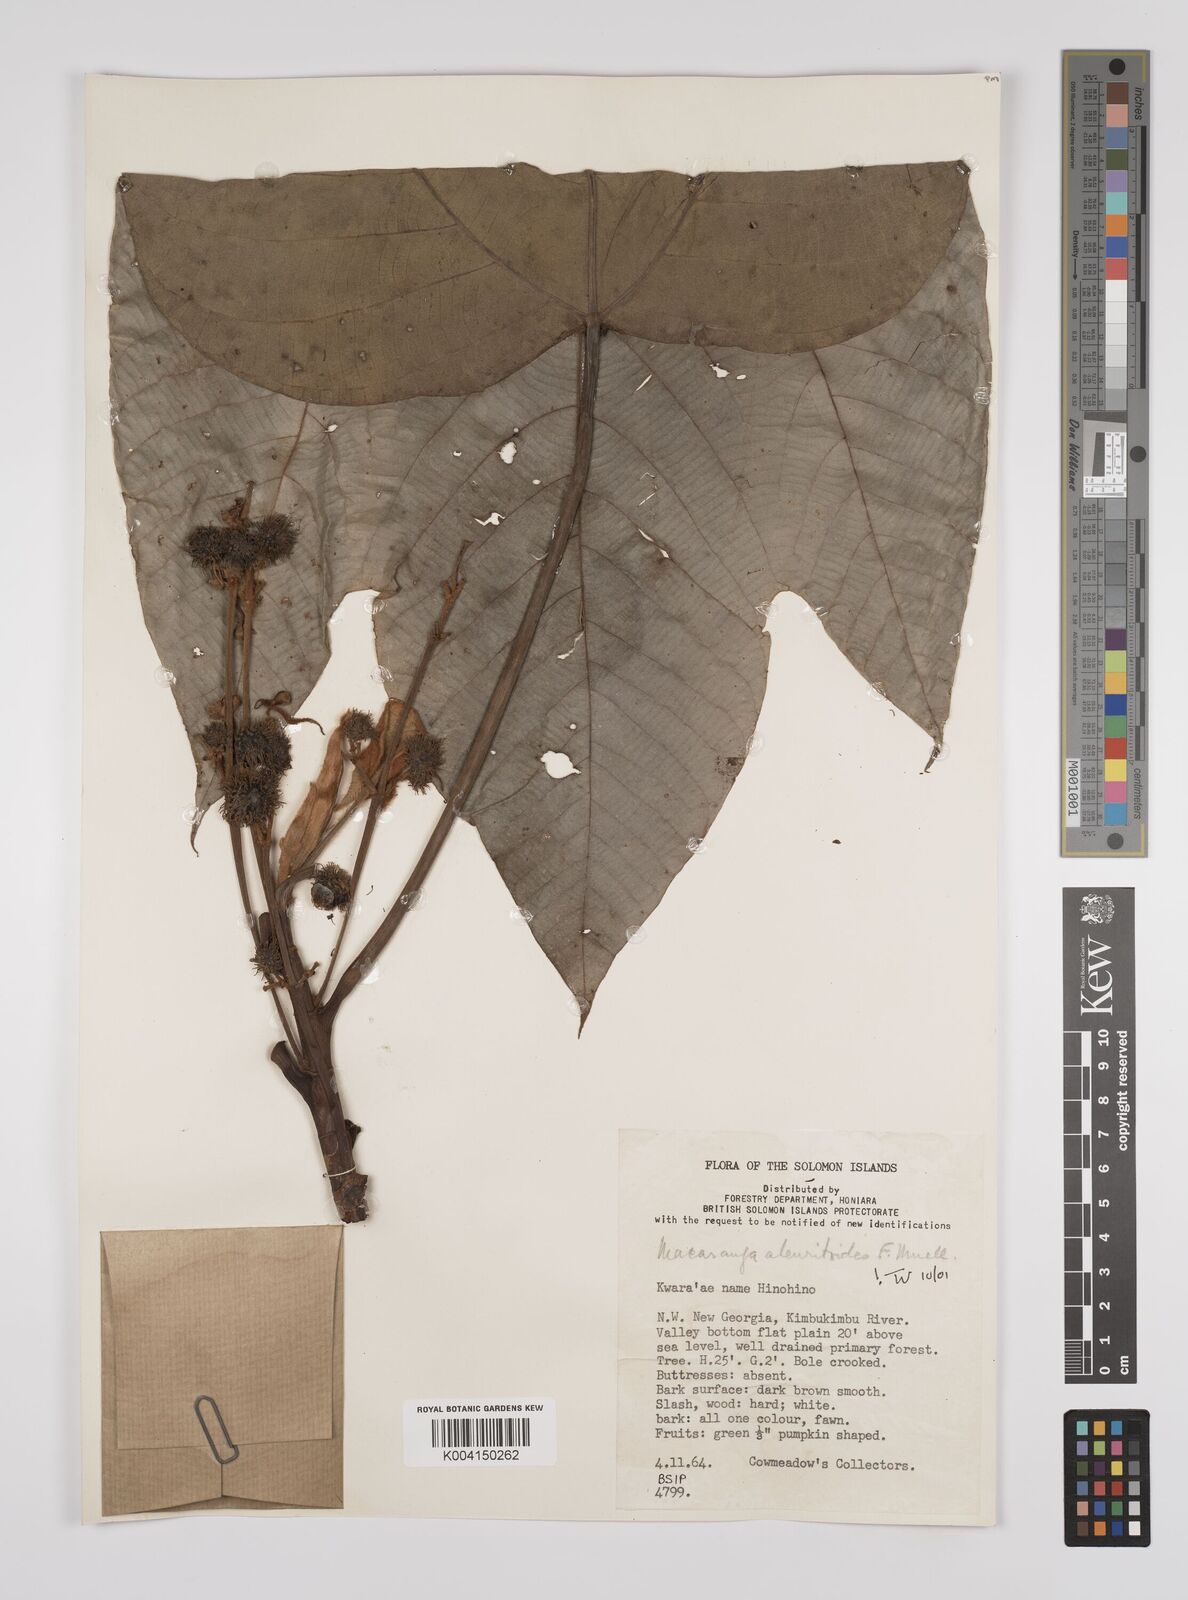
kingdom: Plantae
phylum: Tracheophyta
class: Magnoliopsida
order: Malpighiales
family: Euphorbiaceae
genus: Macaranga
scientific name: Macaranga aleuritoides
